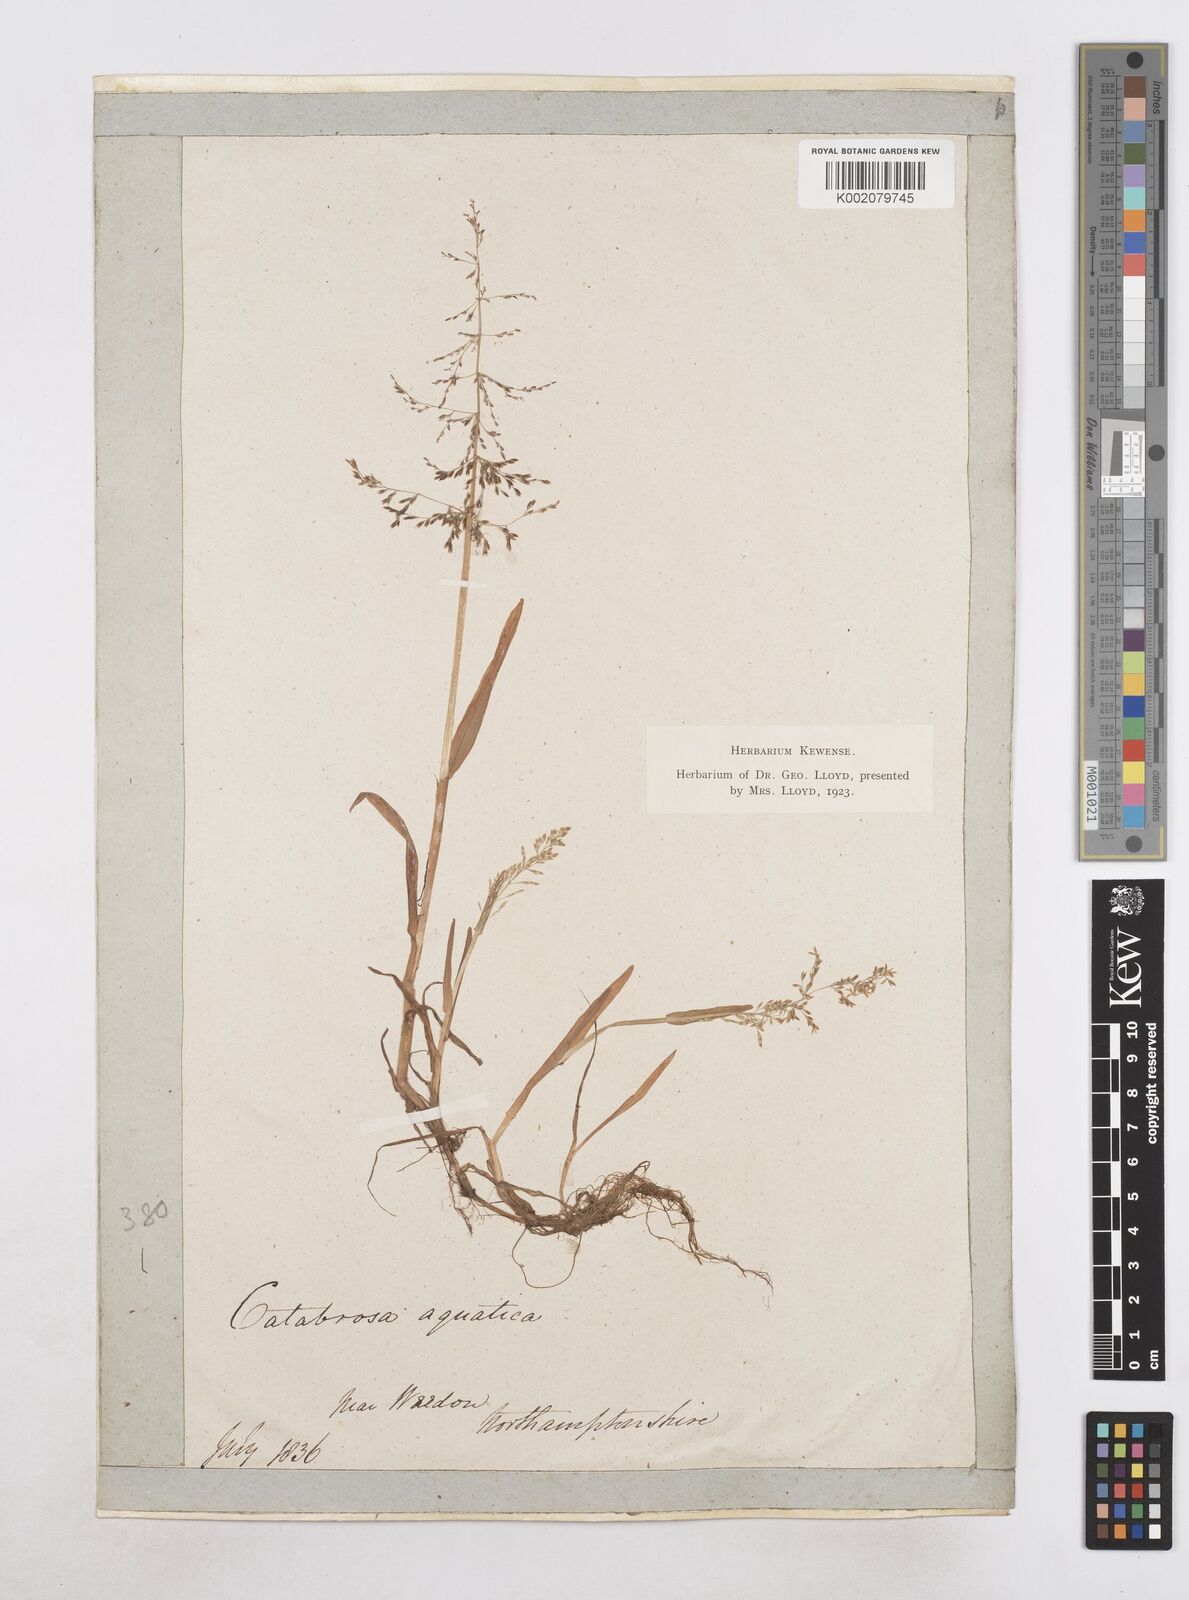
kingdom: Plantae
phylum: Tracheophyta
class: Liliopsida
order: Poales
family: Poaceae
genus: Catabrosa
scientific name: Catabrosa aquatica
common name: Whorl-grass
